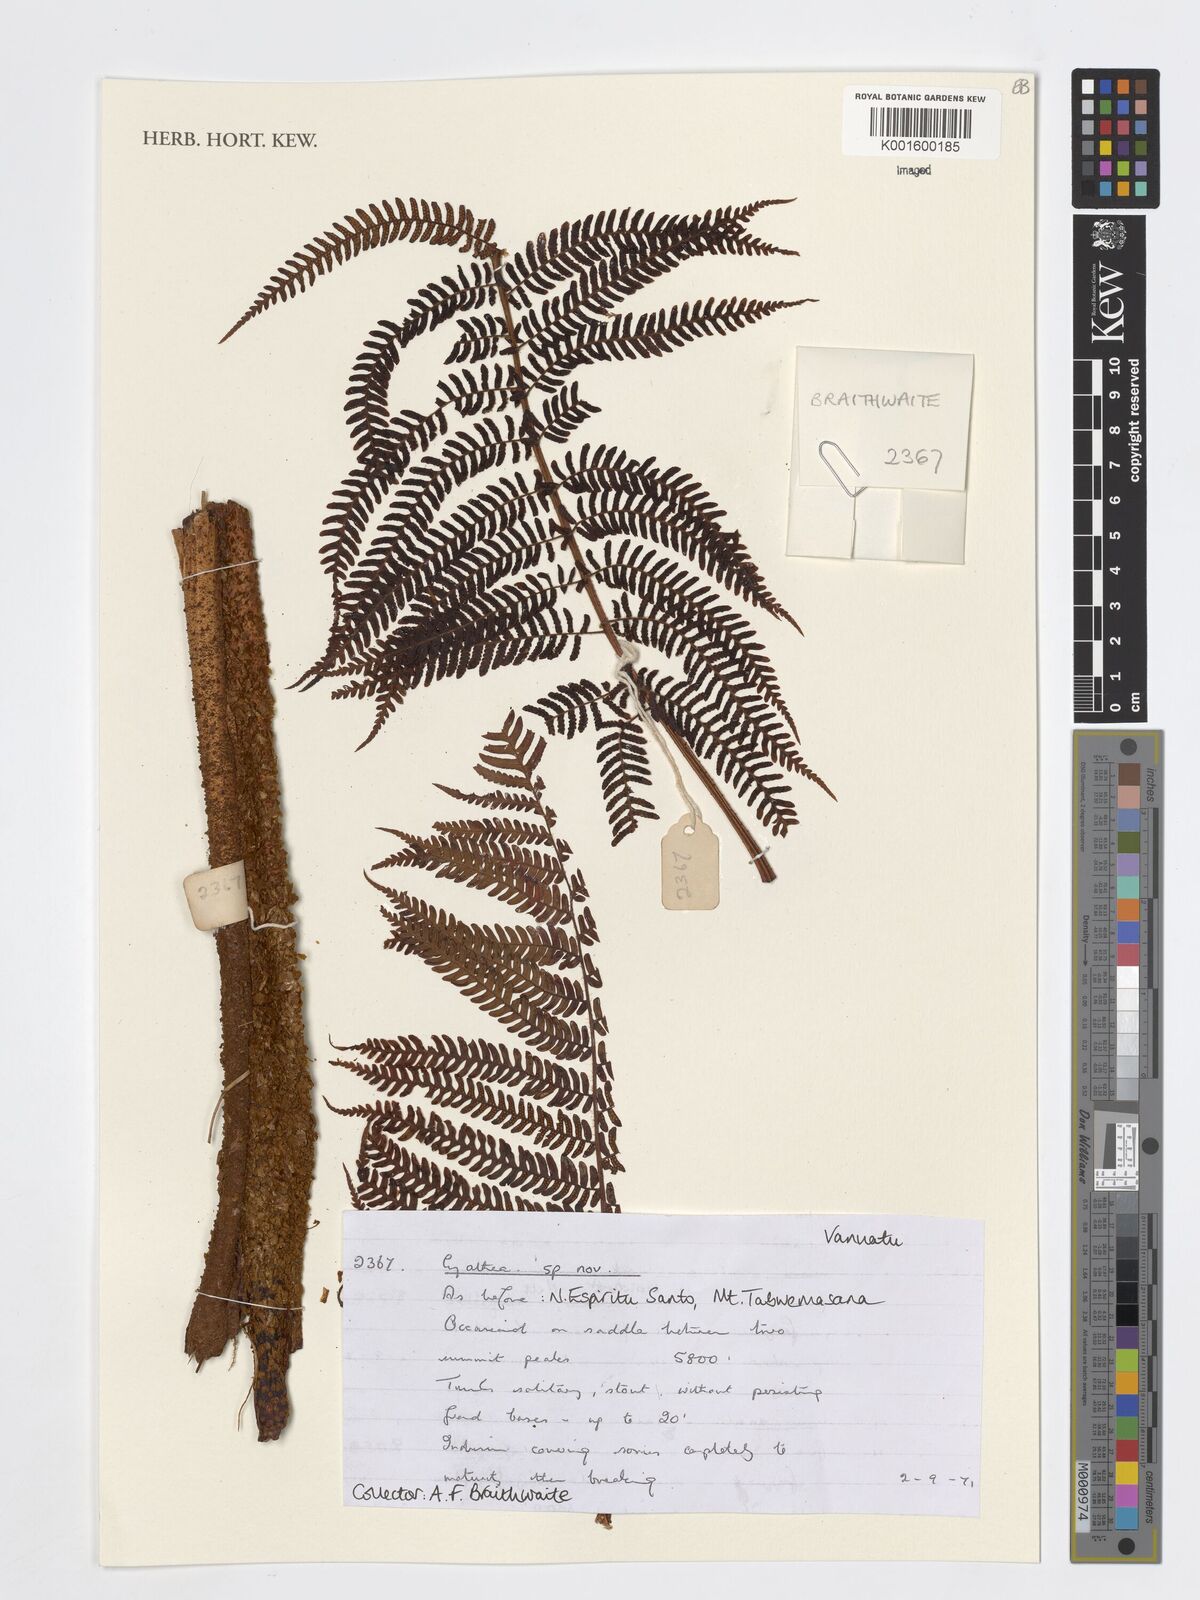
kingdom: Plantae
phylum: Tracheophyta
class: Polypodiopsida
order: Cyatheales
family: Cyatheaceae
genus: Cyathea
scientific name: Cyathea
